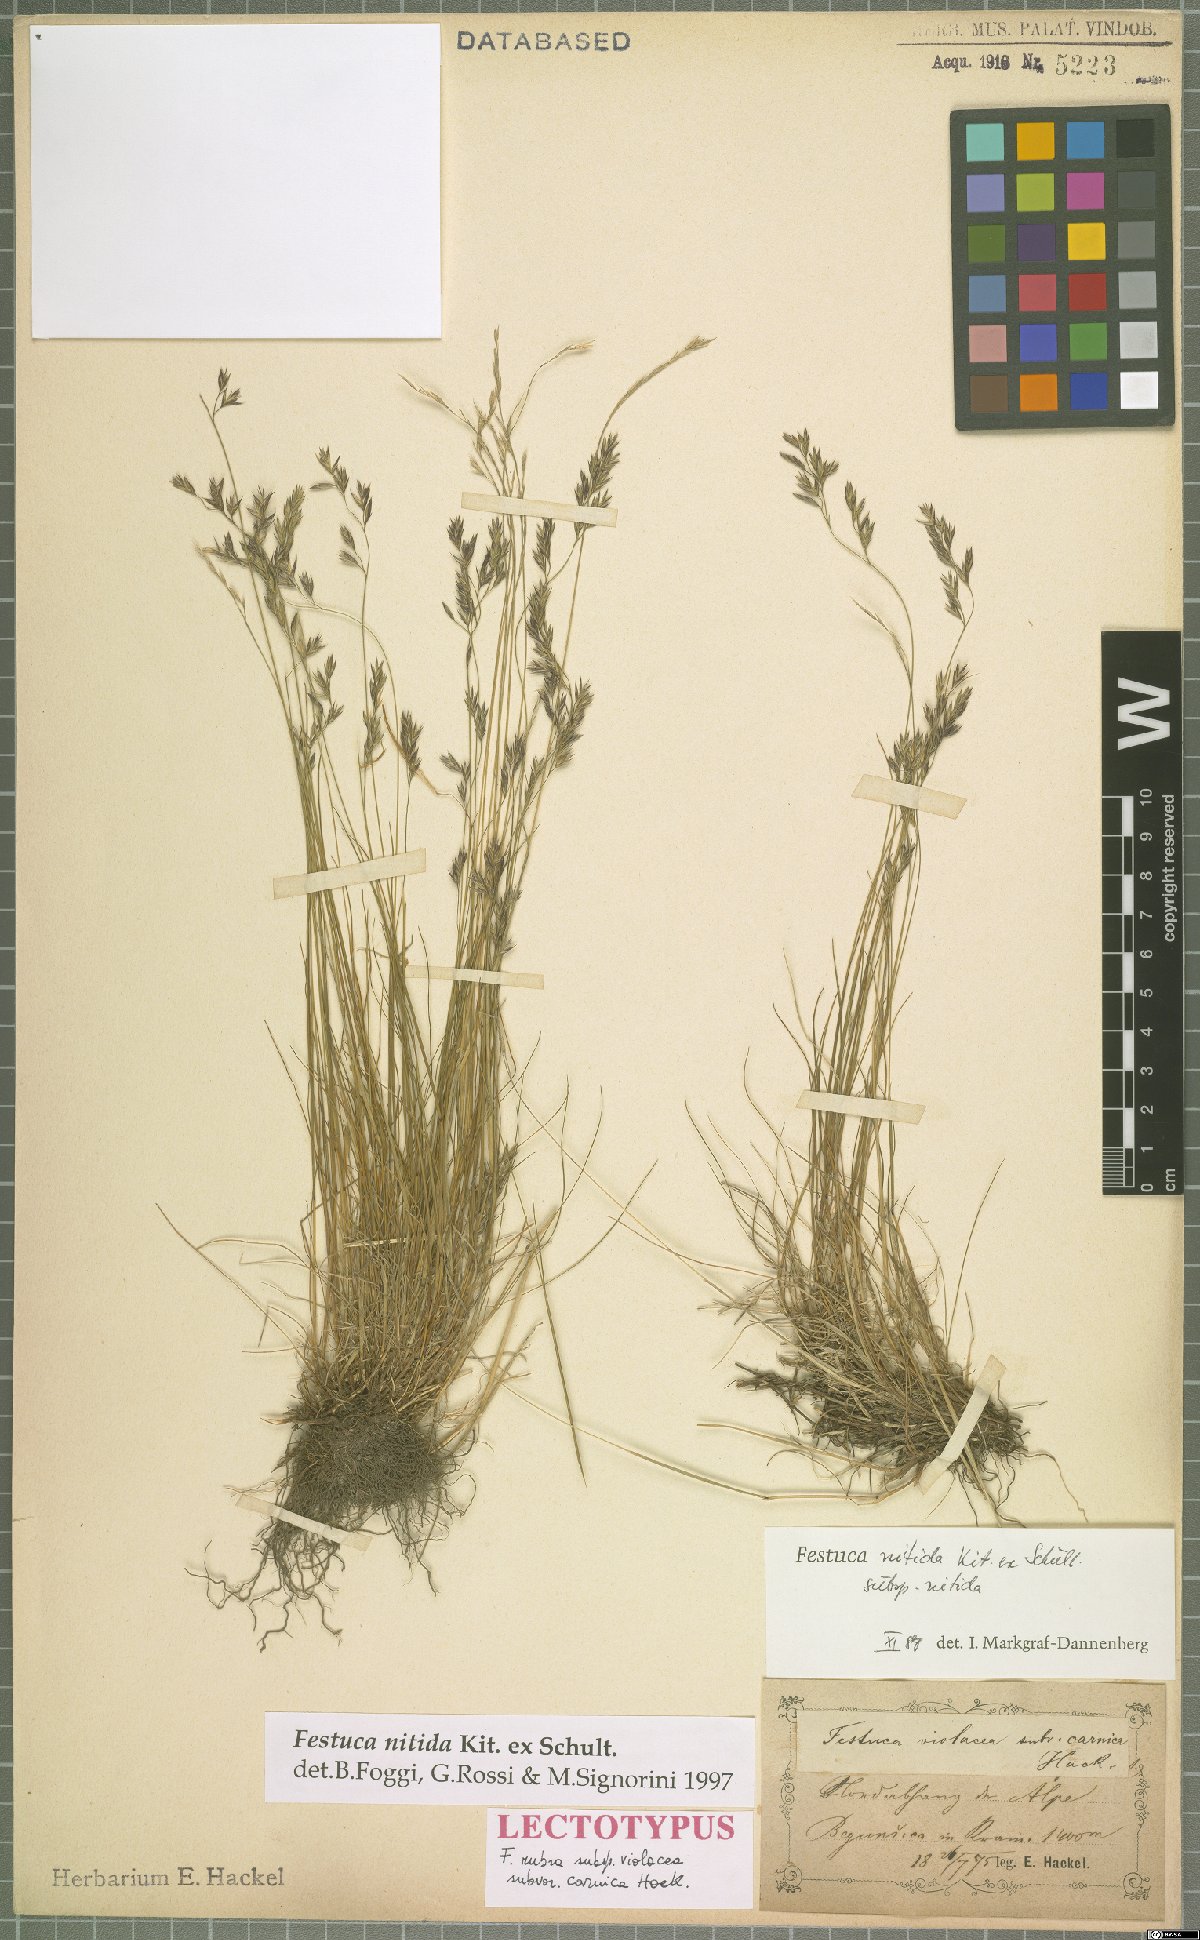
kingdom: Plantae
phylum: Tracheophyta
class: Liliopsida
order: Poales
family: Poaceae
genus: Festuca
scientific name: Festuca nitida
